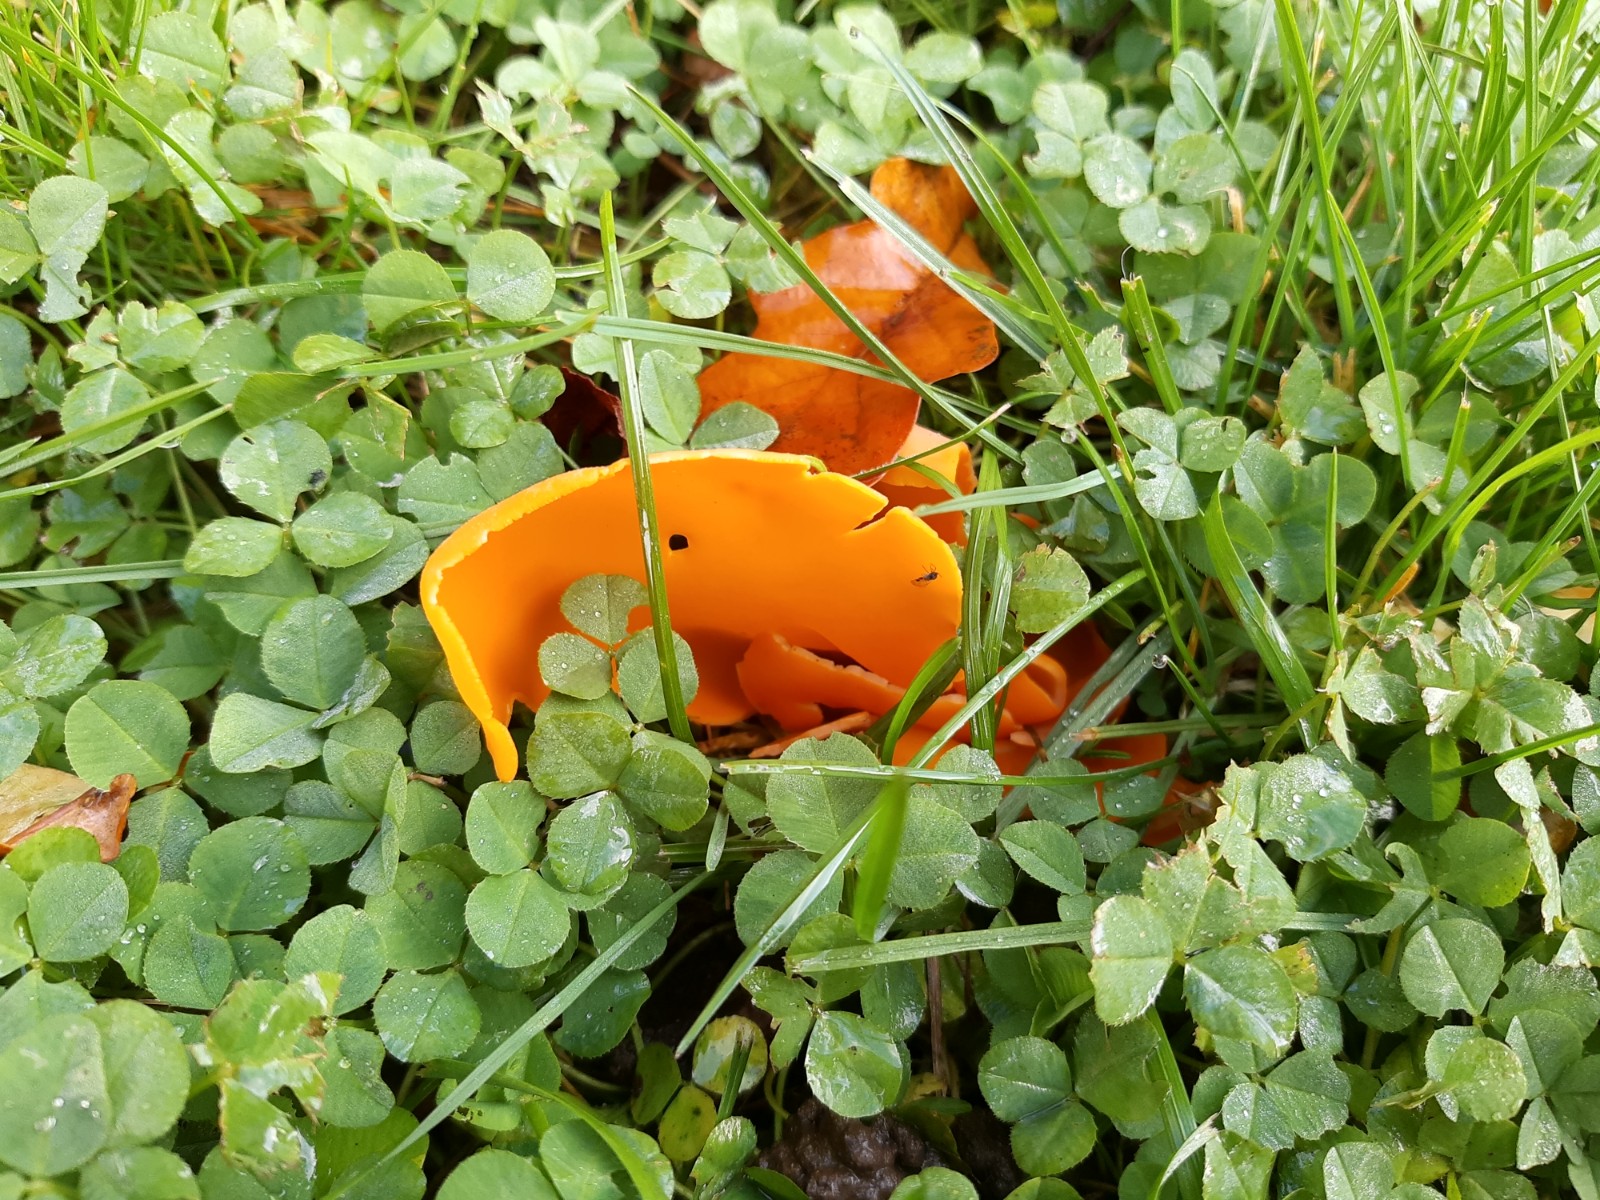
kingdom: Fungi
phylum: Ascomycota
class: Pezizomycetes
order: Pezizales
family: Pyronemataceae
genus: Aleuria
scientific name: Aleuria aurantia
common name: almindelig orangebæger
